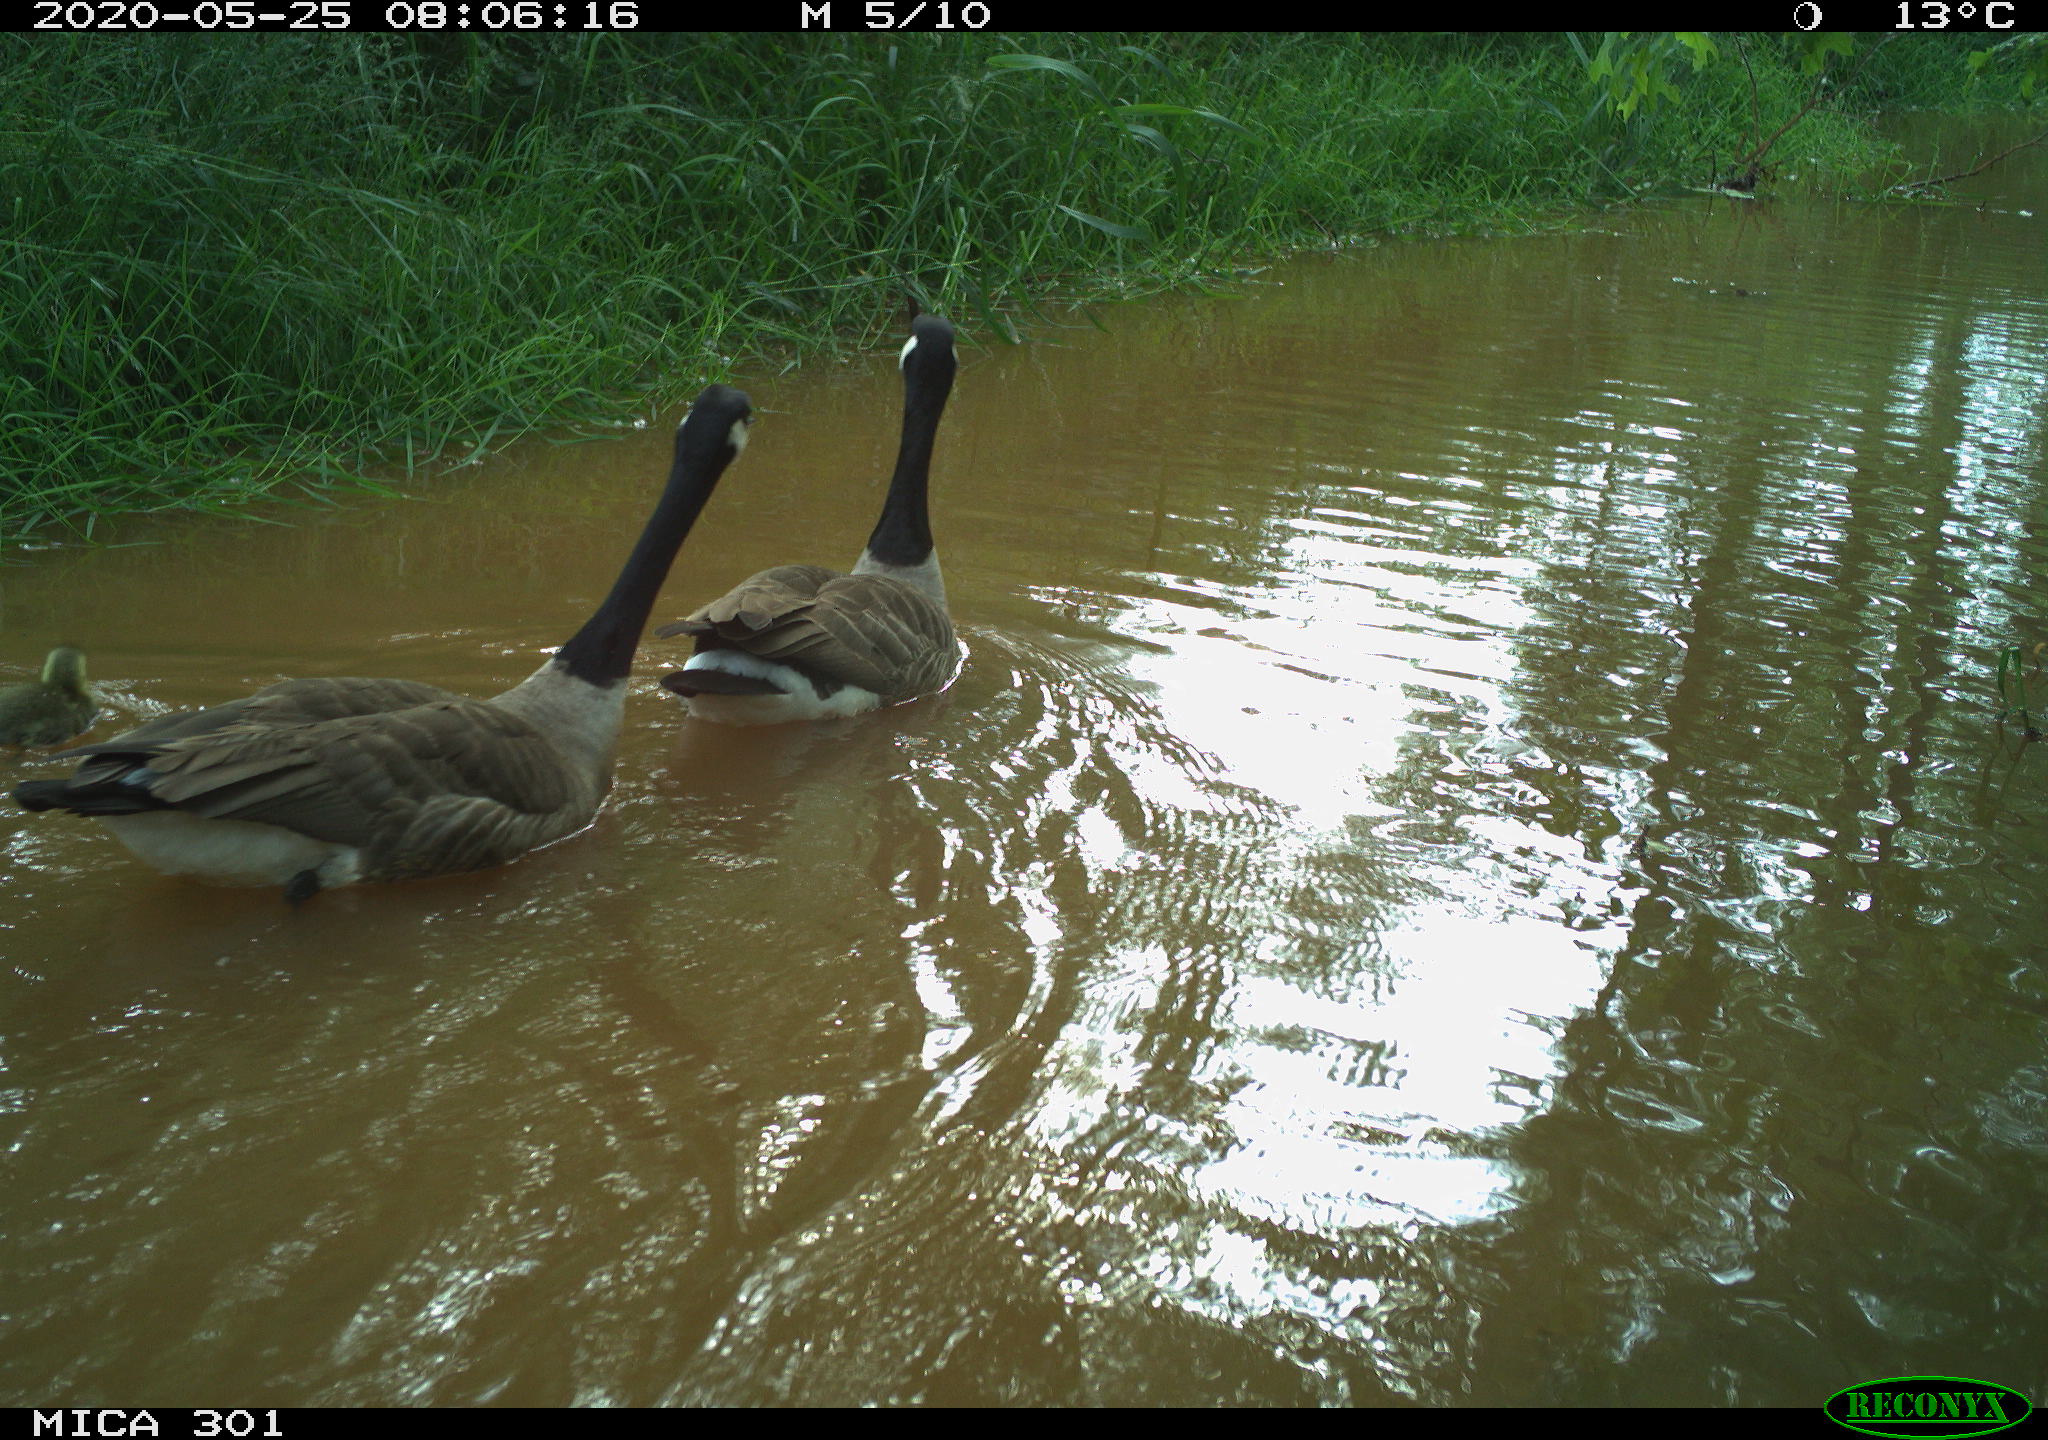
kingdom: Animalia
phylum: Chordata
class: Aves
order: Anseriformes
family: Anatidae
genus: Branta
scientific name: Branta canadensis
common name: Canada goose
